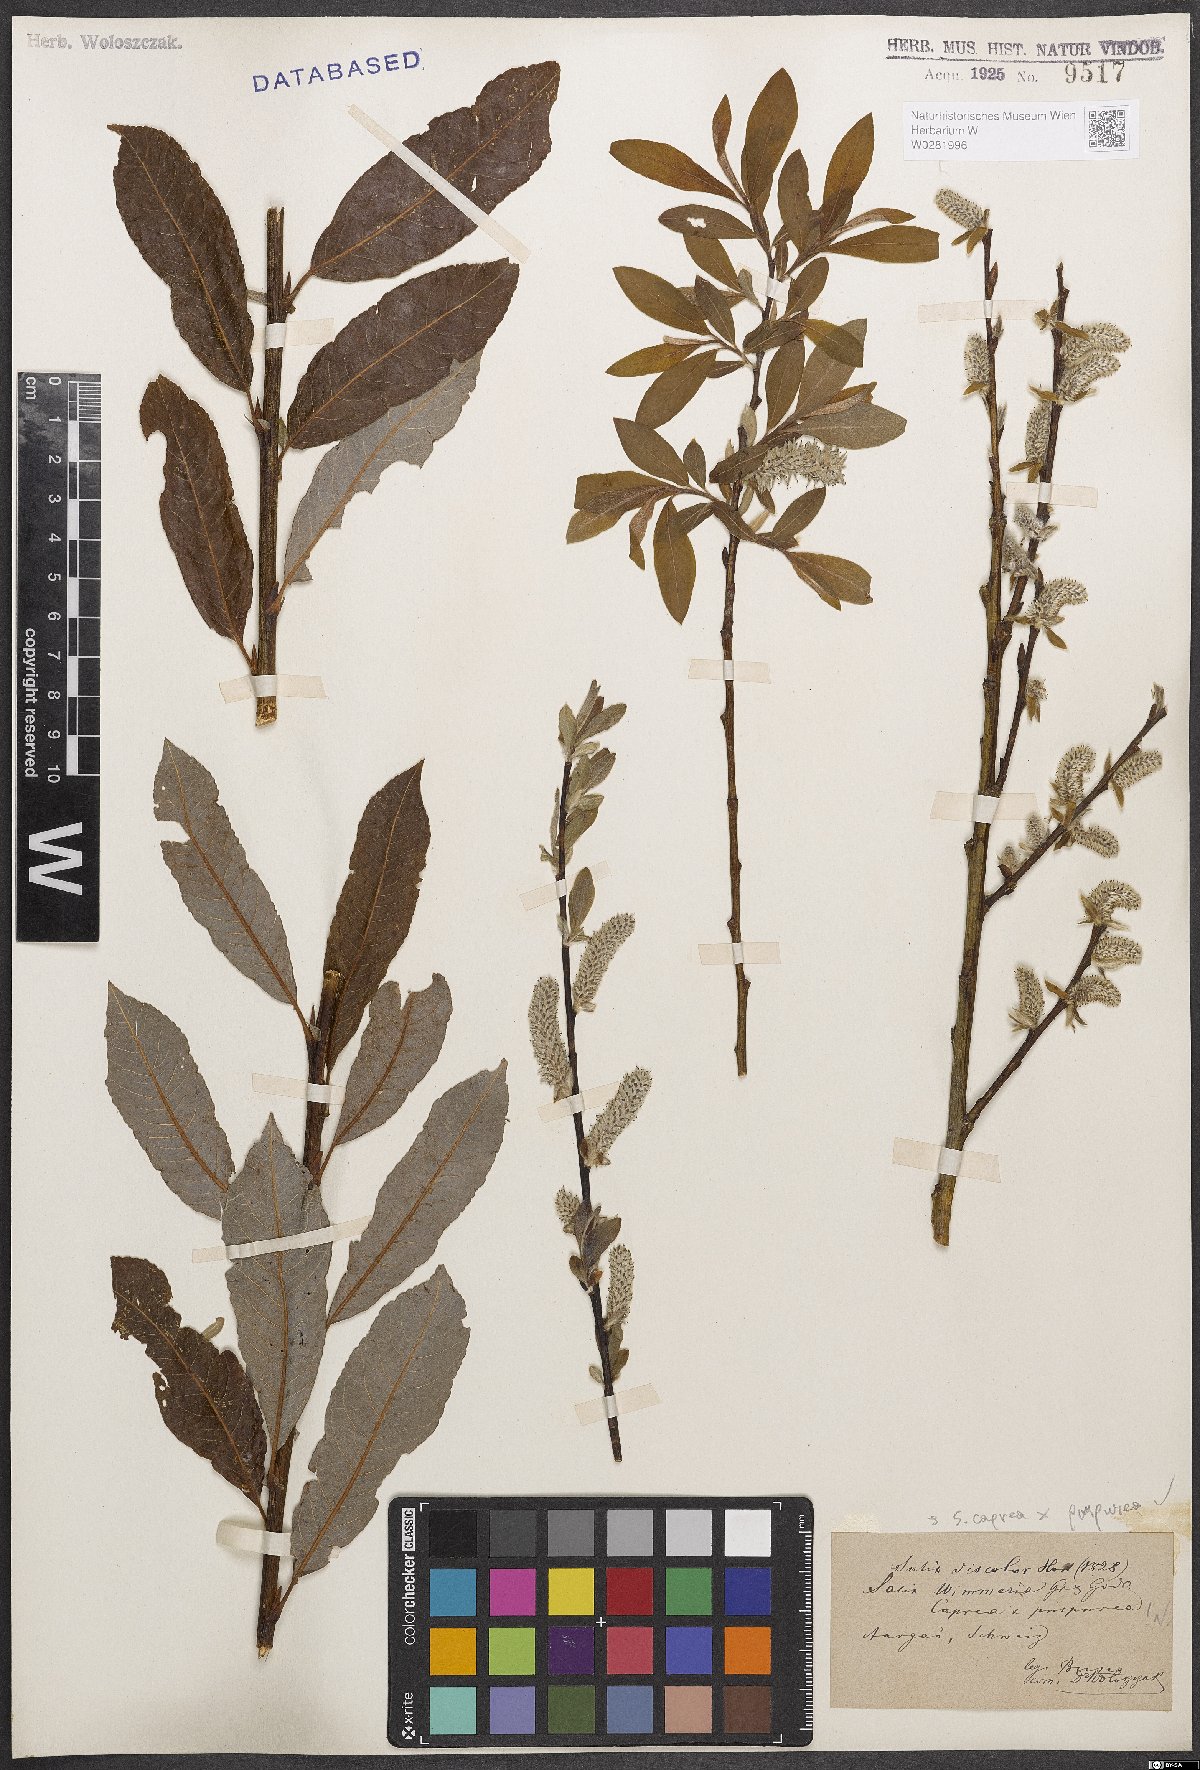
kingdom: Plantae
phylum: Tracheophyta
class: Magnoliopsida
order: Malpighiales
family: Salicaceae
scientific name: Salicaceae
